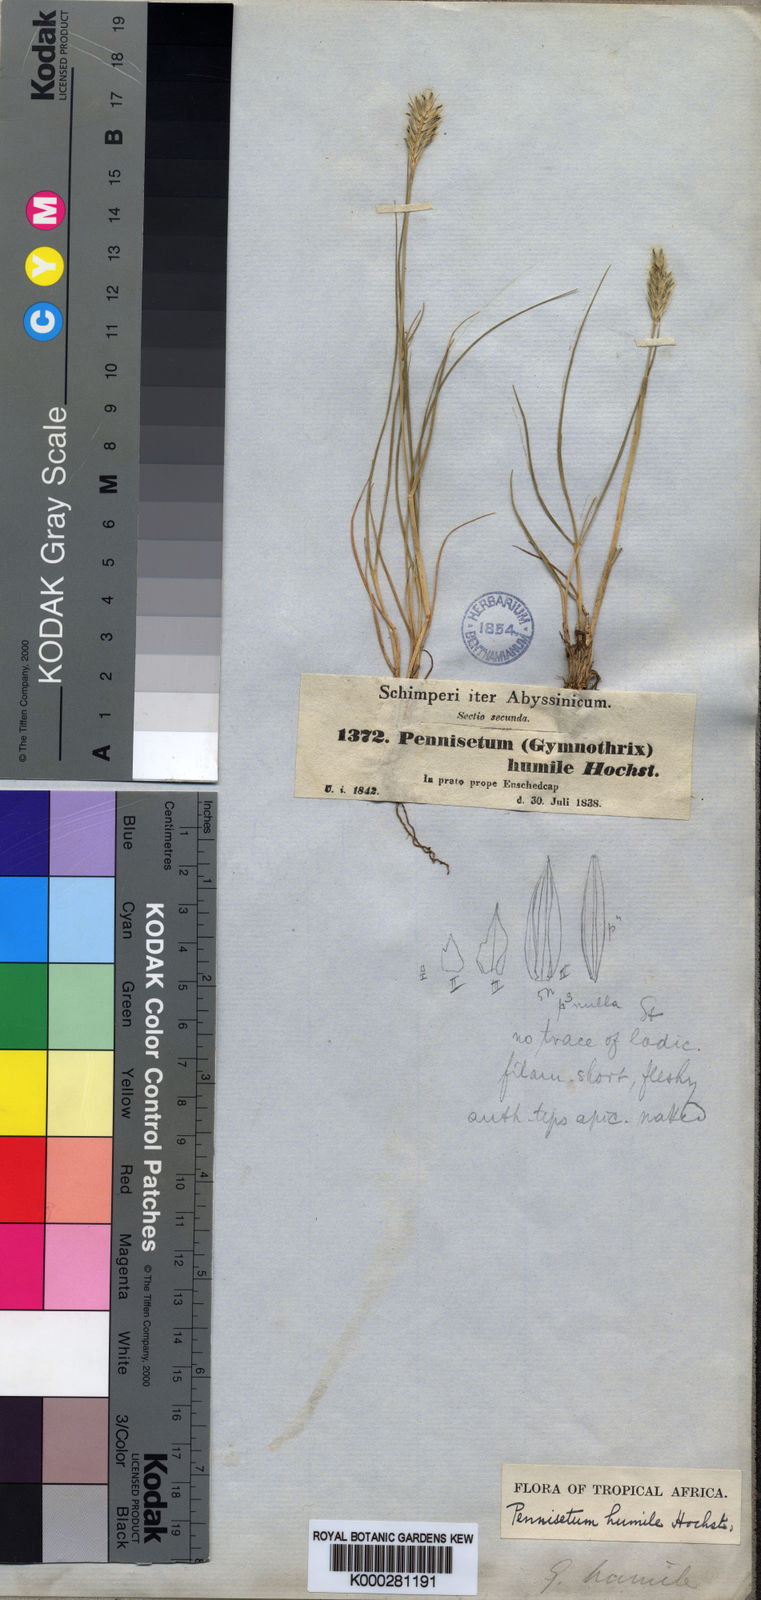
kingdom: Plantae
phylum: Tracheophyta
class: Liliopsida
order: Poales
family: Poaceae
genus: Cenchrus
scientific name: Cenchrus nanus
